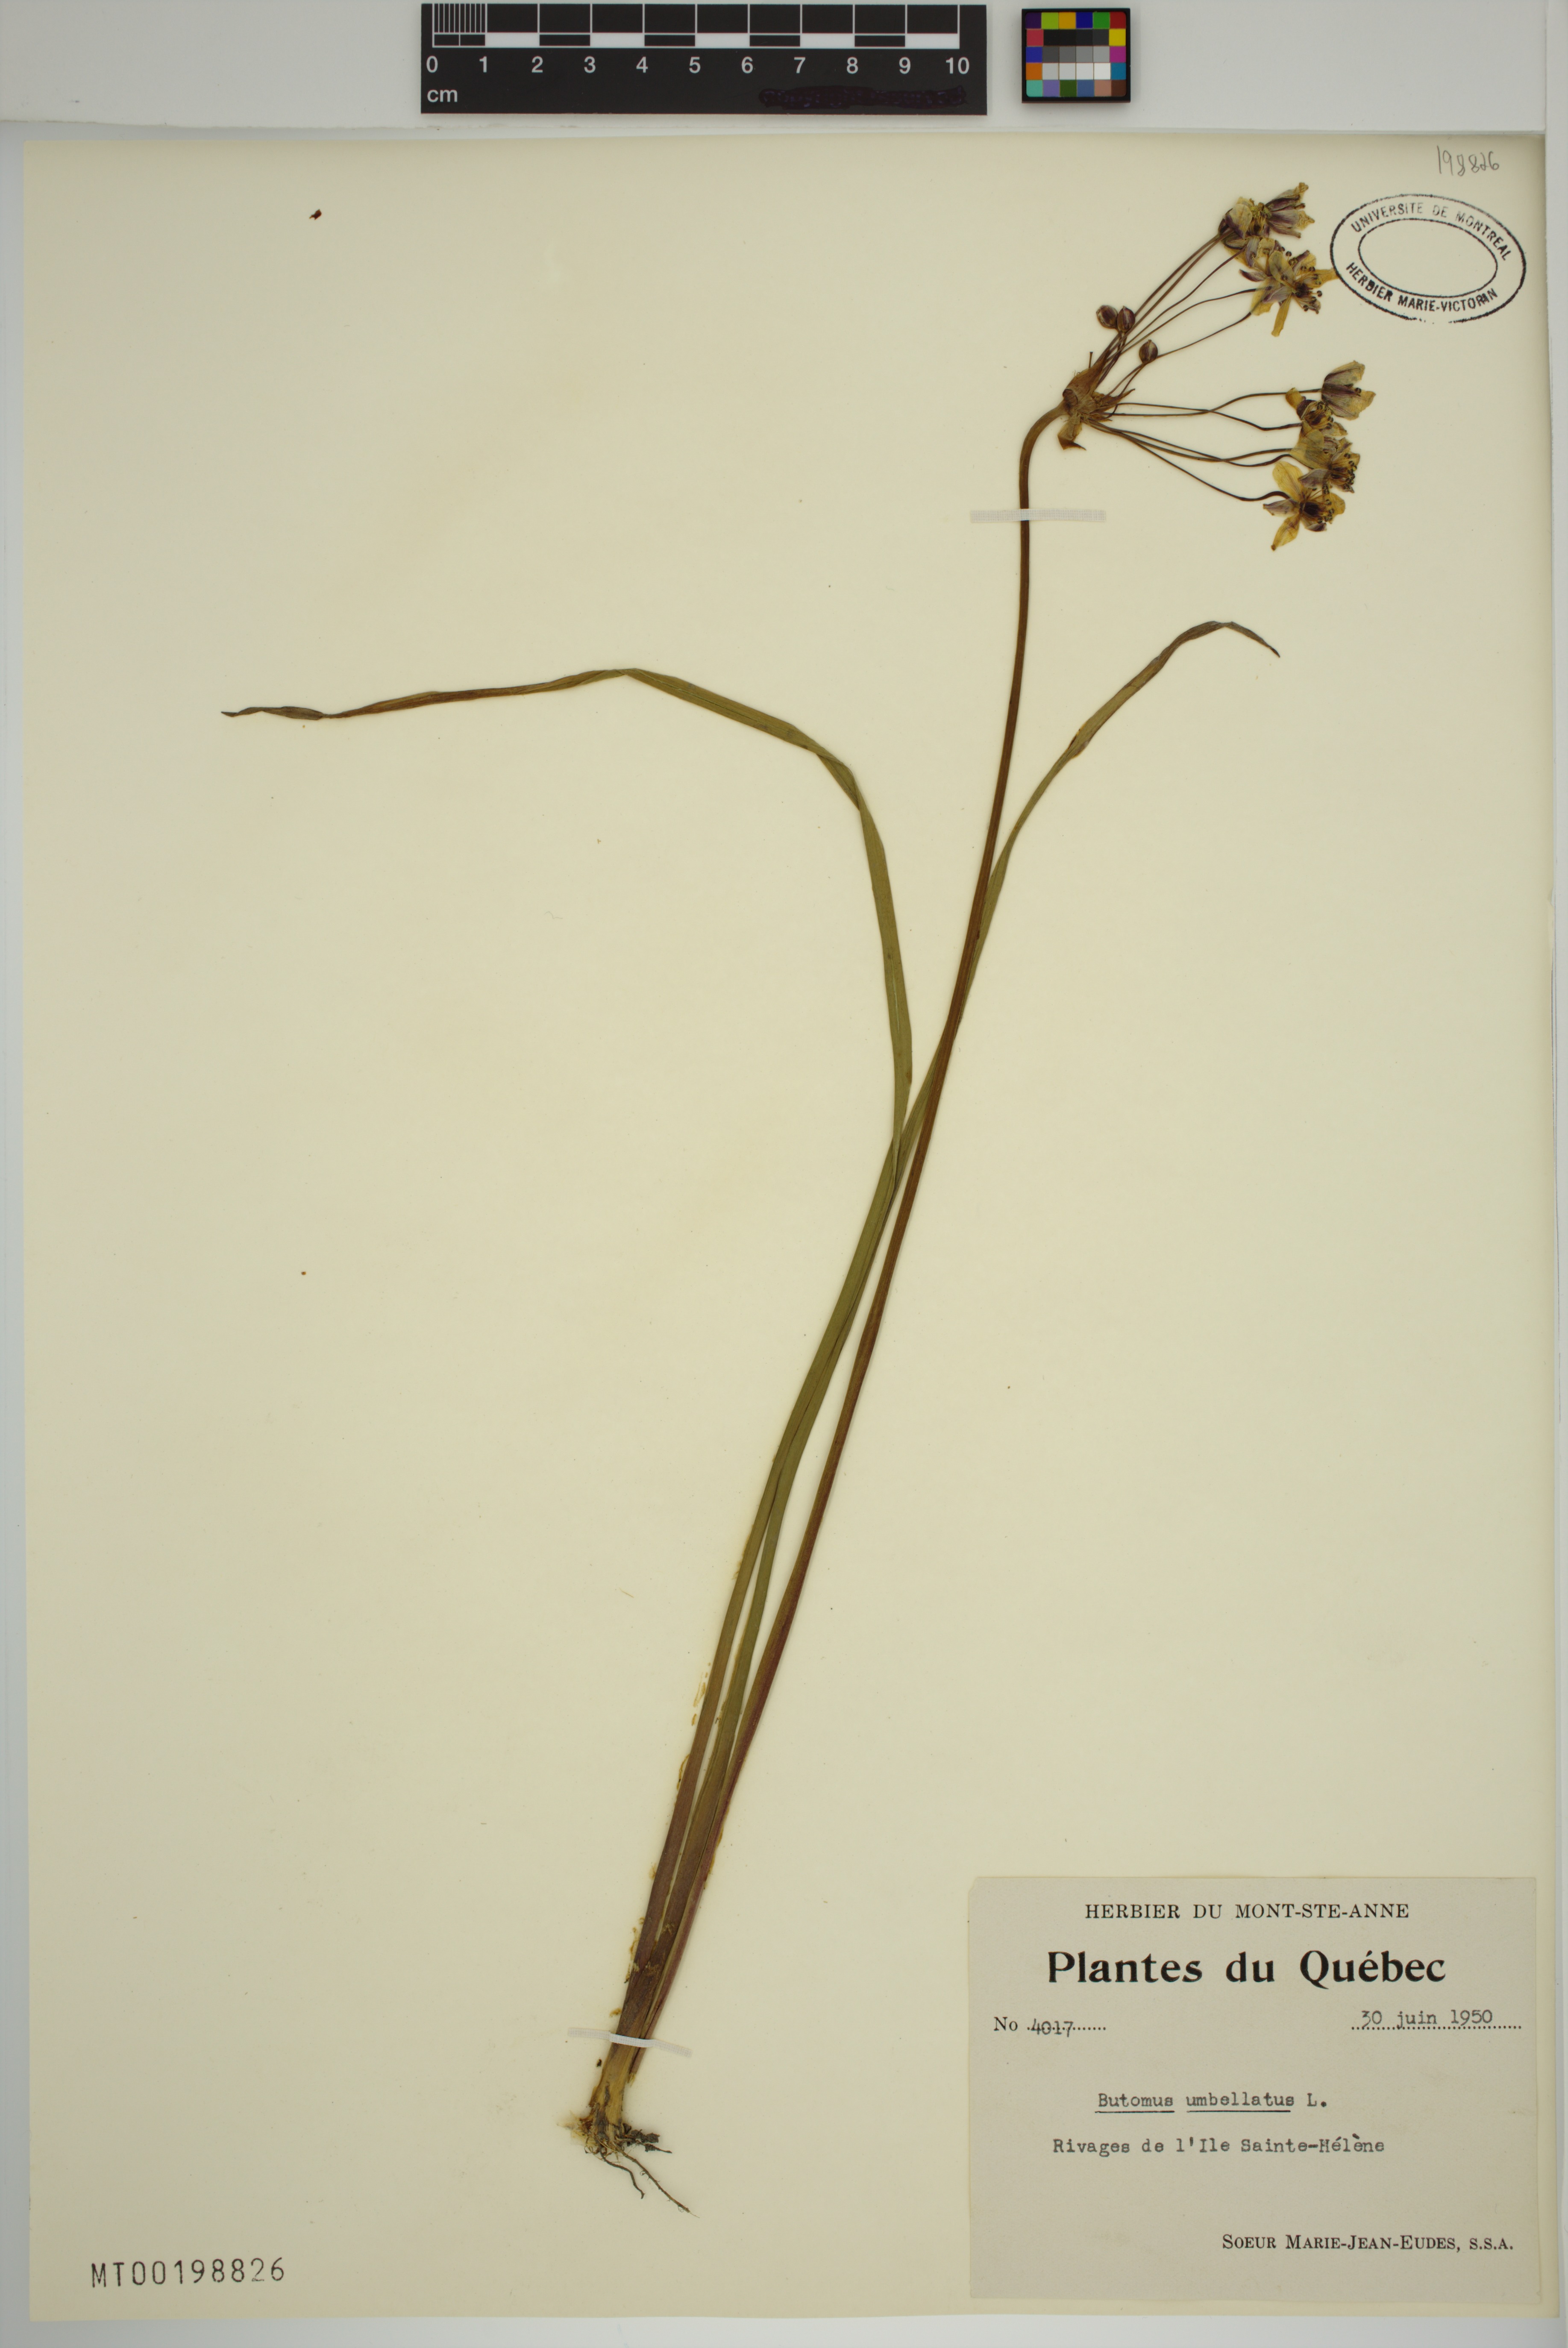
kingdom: Plantae
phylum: Tracheophyta
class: Liliopsida
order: Alismatales
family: Butomaceae
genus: Butomus
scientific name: Butomus umbellatus
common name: Flowering-rush
